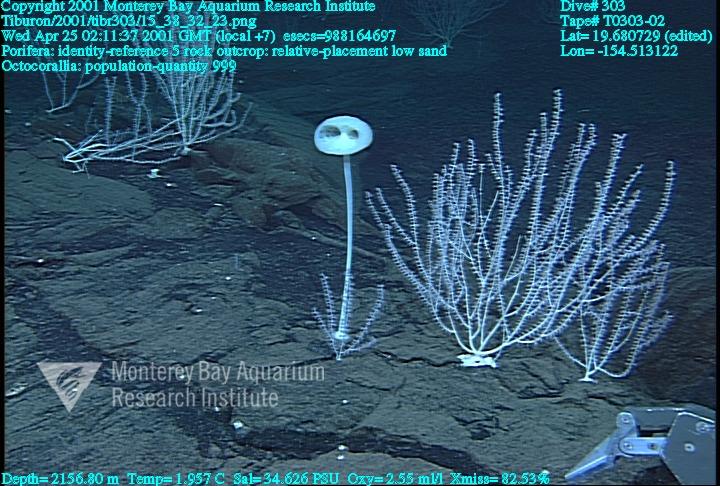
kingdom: Animalia
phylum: Porifera
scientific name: Porifera
